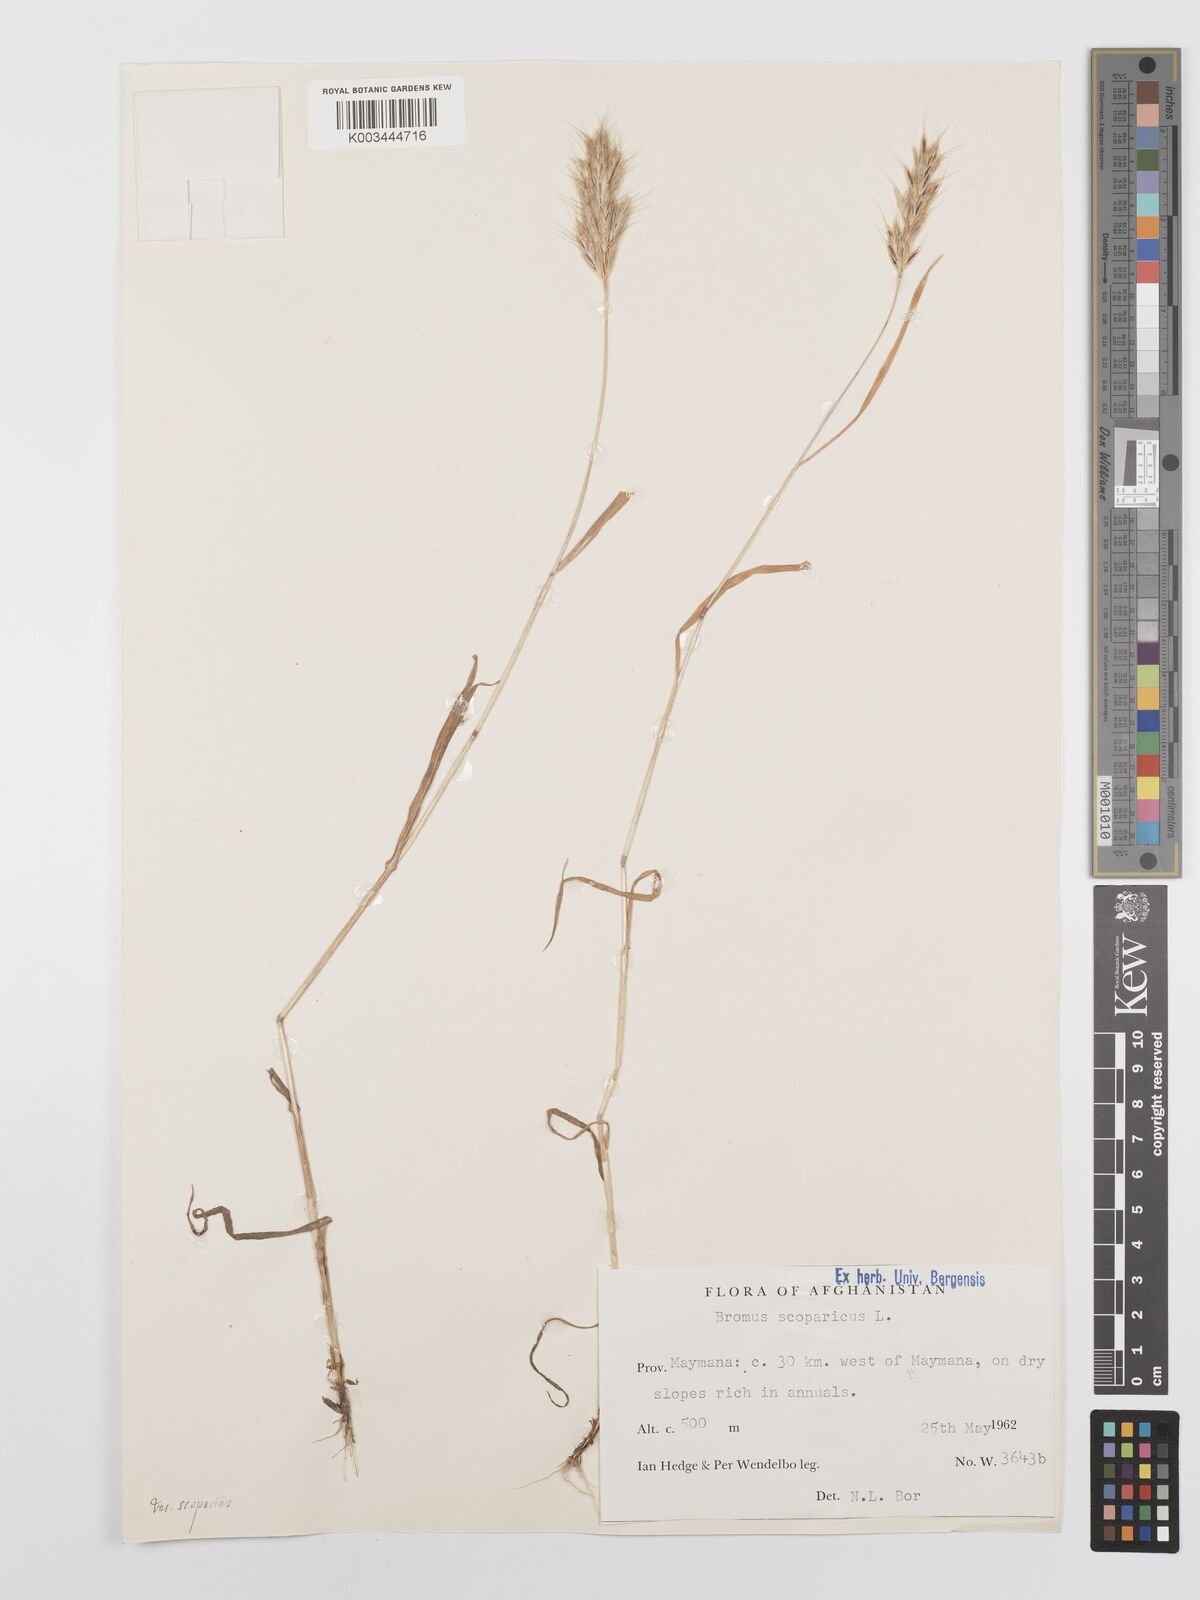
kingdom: Plantae
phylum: Tracheophyta
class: Liliopsida
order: Poales
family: Poaceae
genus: Bromus
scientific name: Bromus scoparius
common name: Broom brome
